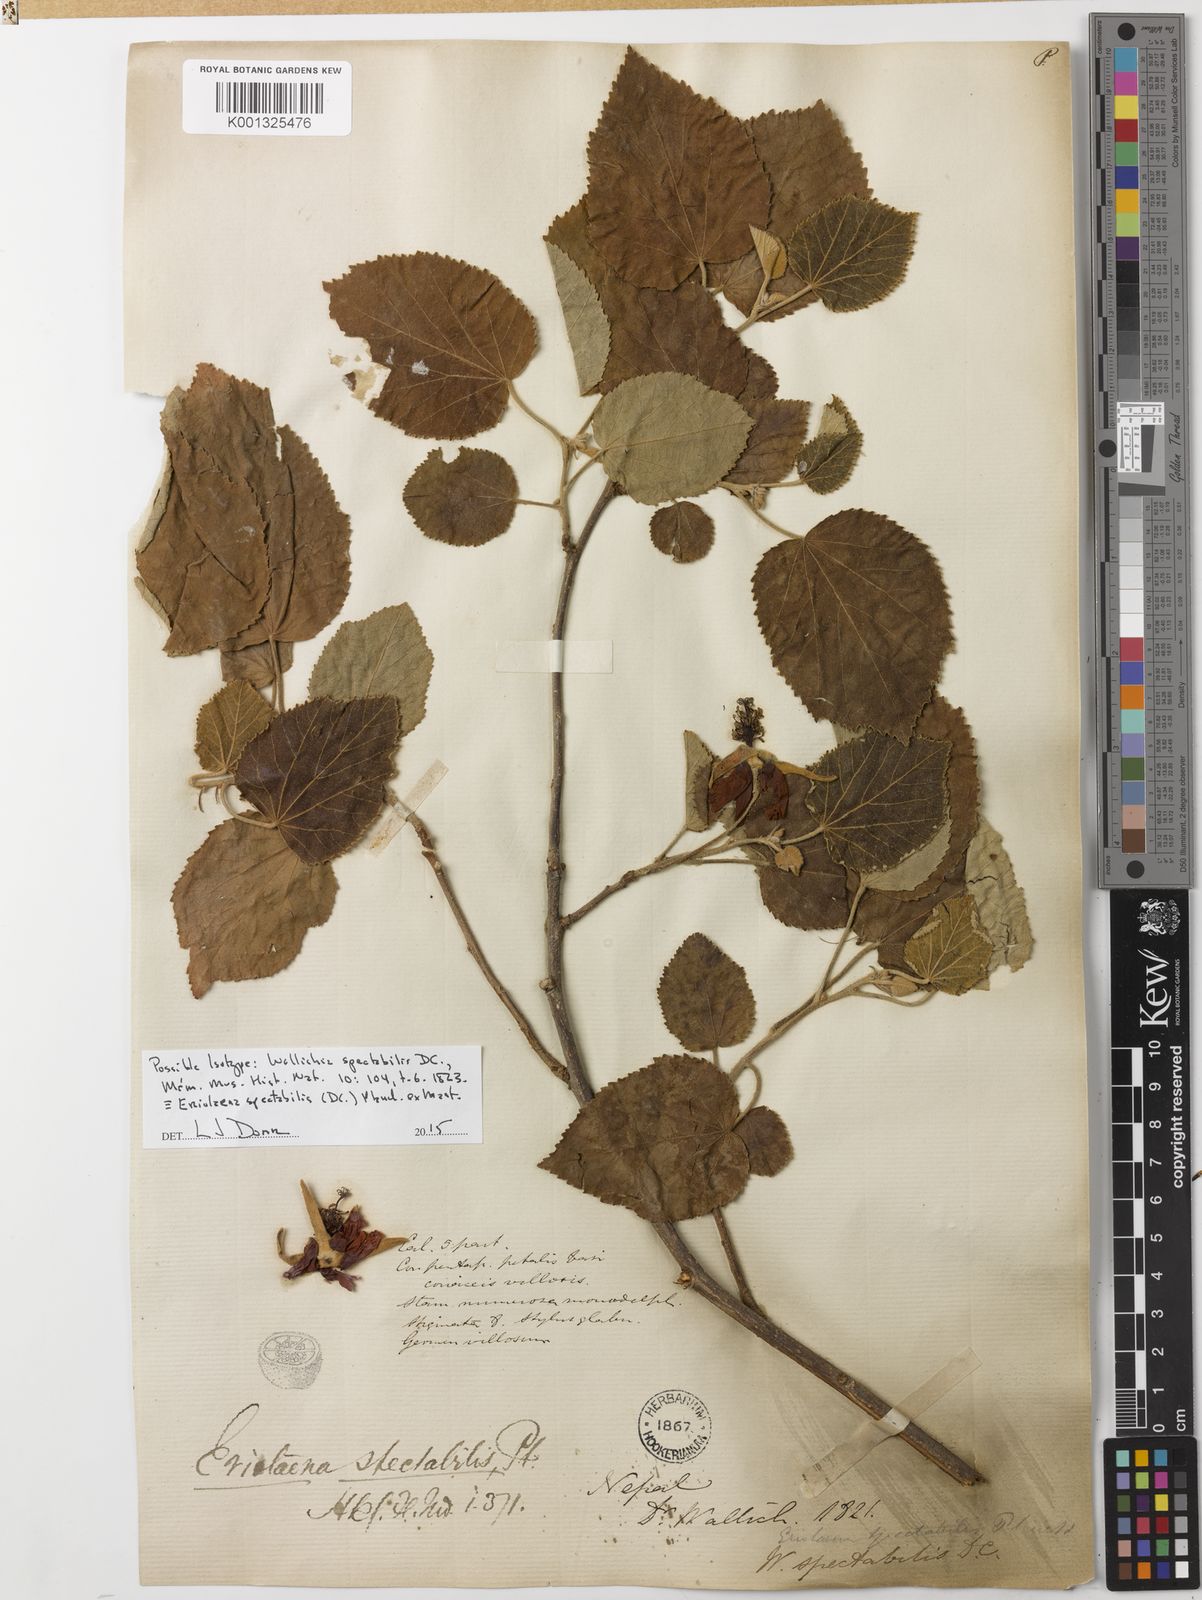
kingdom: Plantae
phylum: Tracheophyta
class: Magnoliopsida
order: Malvales
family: Malvaceae
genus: Eriolaena
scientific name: Eriolaena spectabilis
